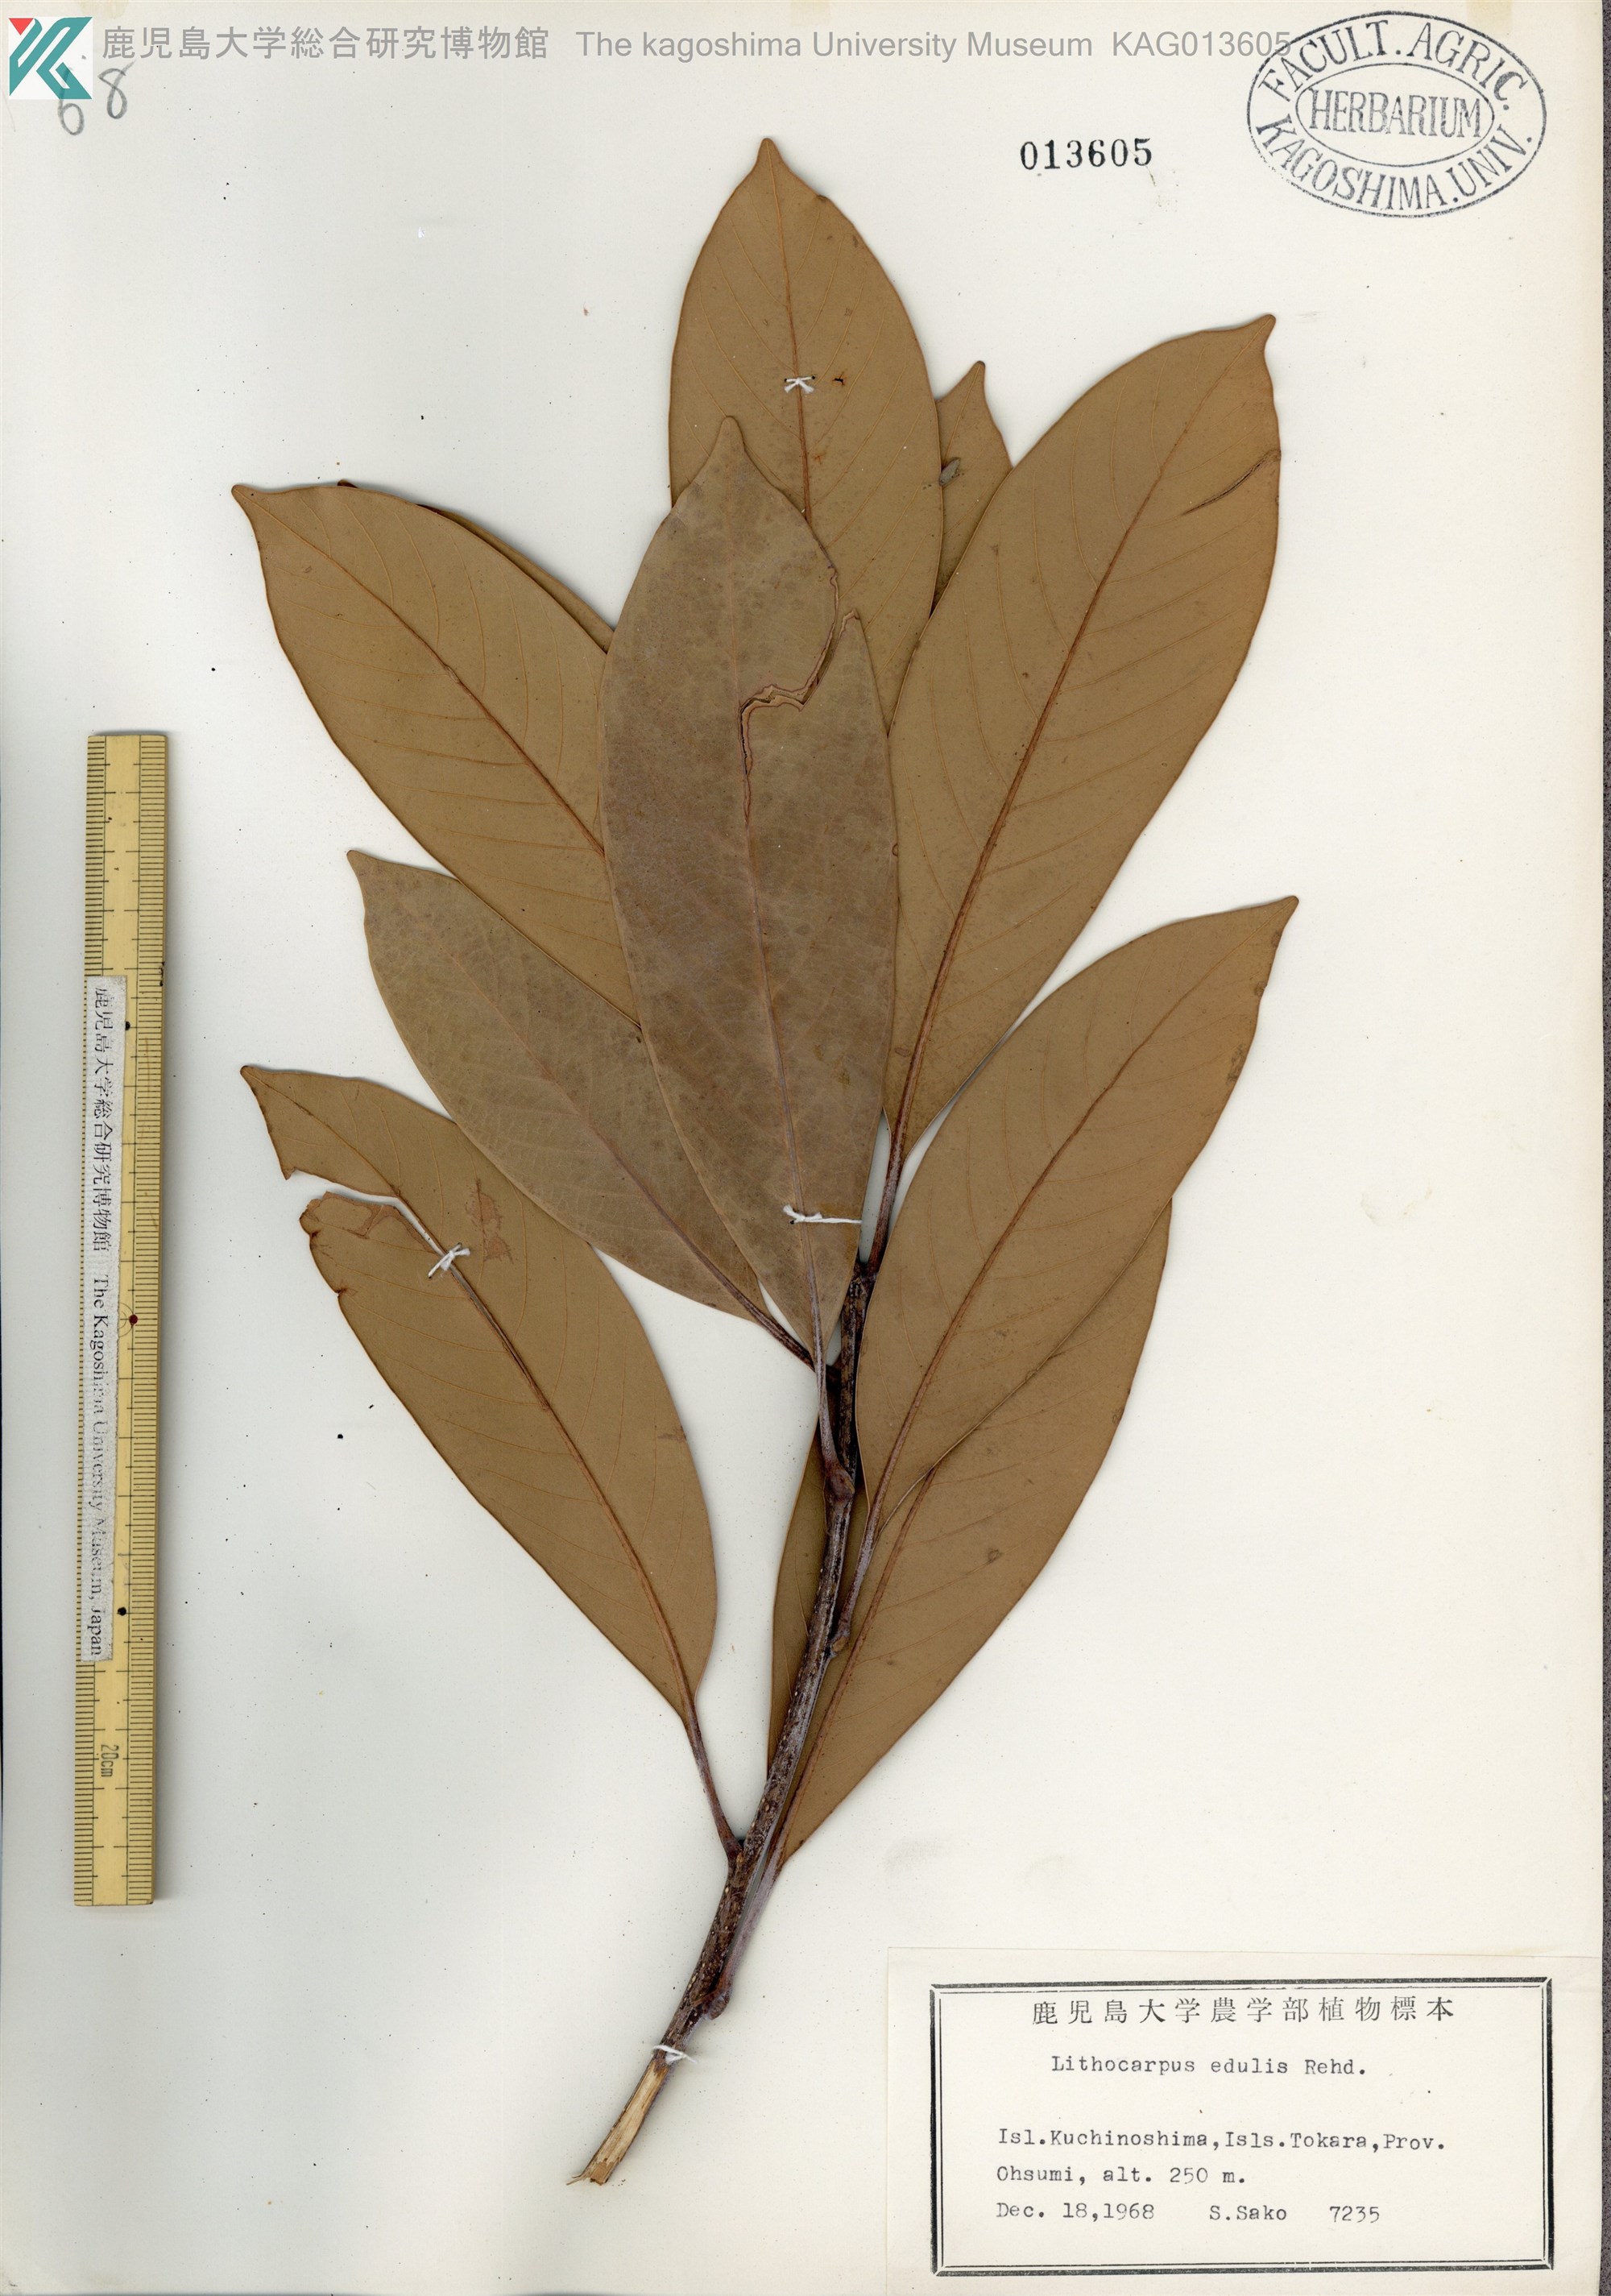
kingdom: Plantae
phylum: Tracheophyta
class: Magnoliopsida
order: Fagales
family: Fagaceae
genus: Lithocarpus
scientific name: Lithocarpus edulis
